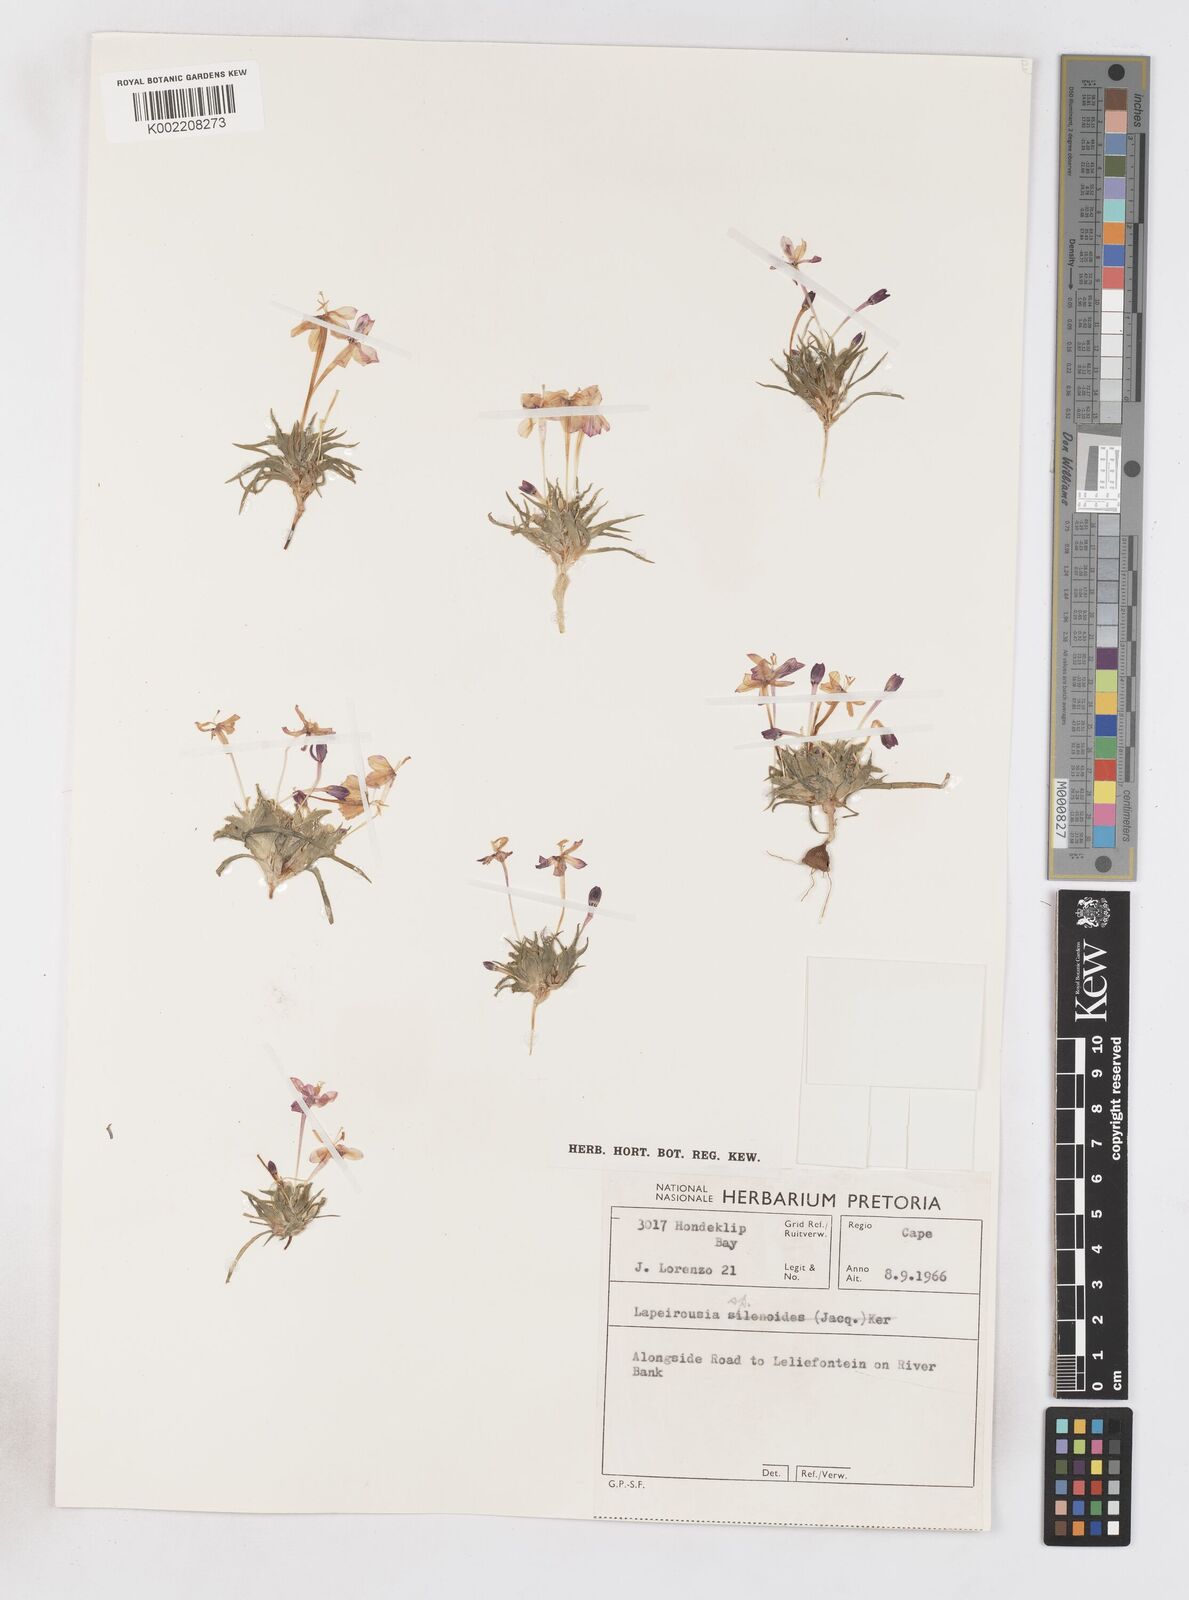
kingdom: Plantae
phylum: Tracheophyta
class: Liliopsida
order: Asparagales
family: Iridaceae
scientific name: Iridaceae
